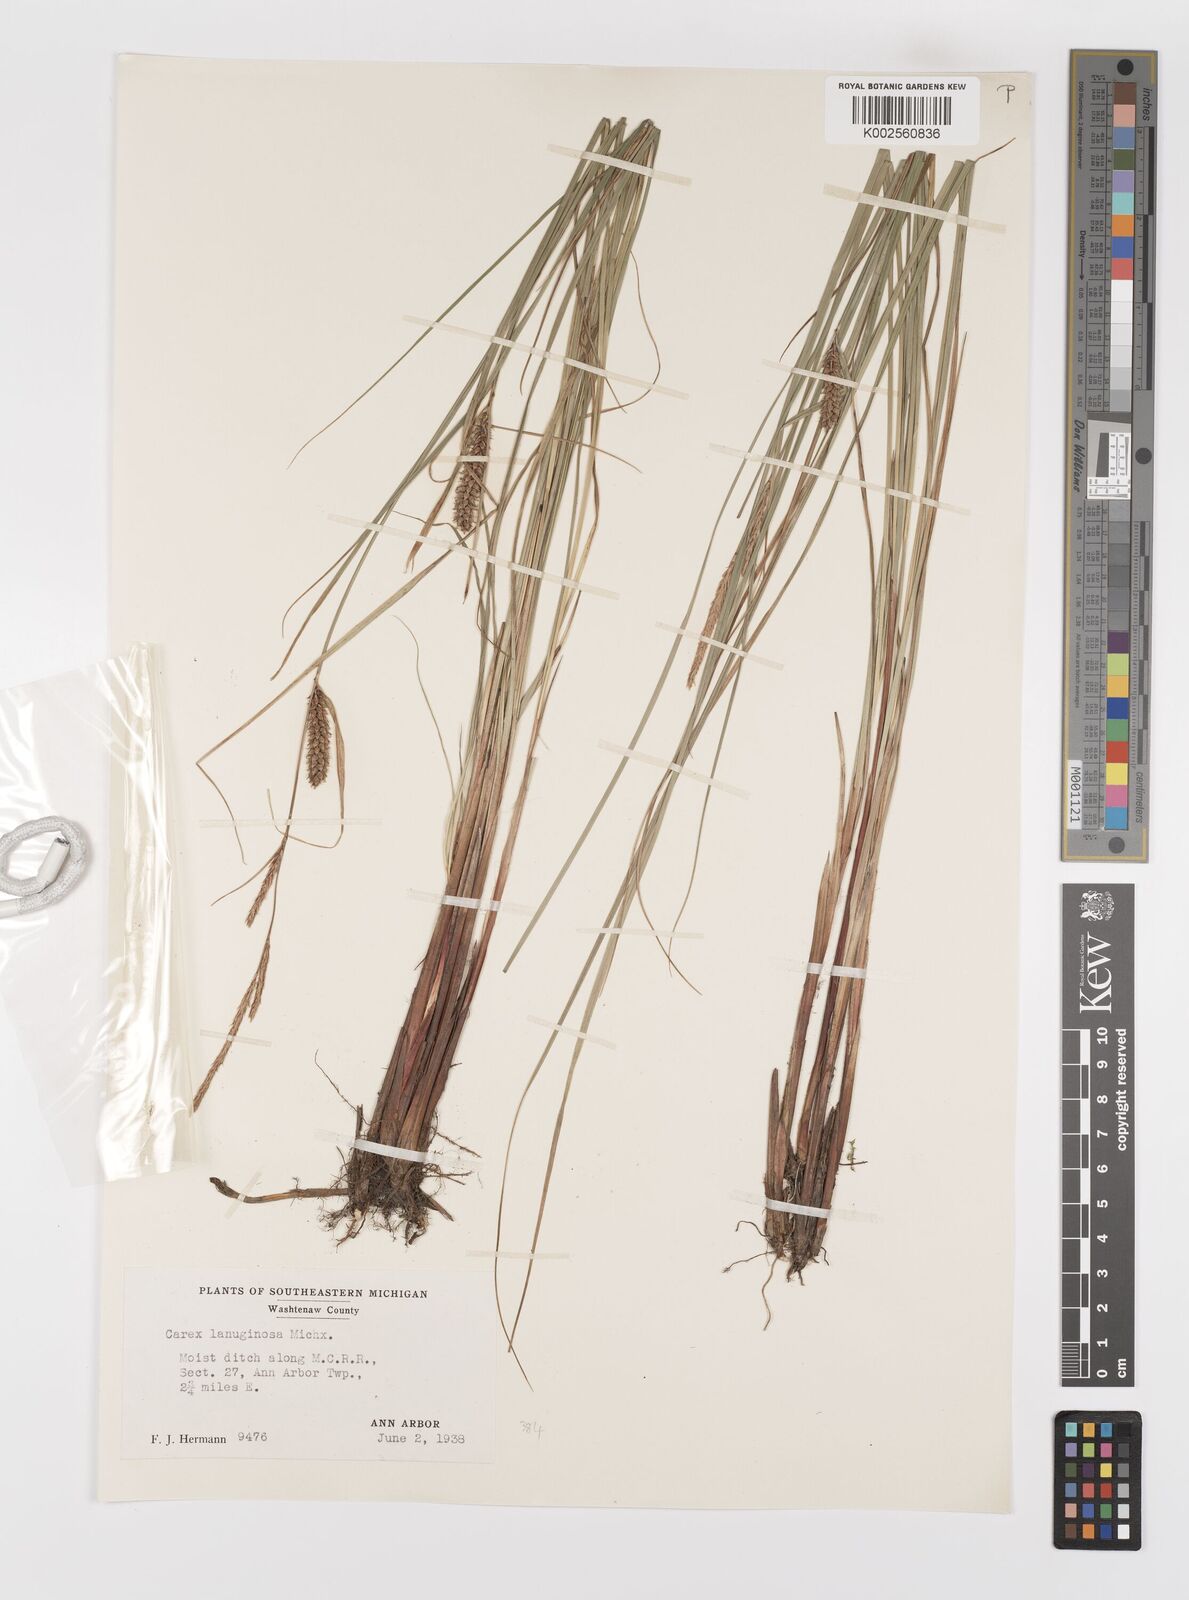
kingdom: Plantae
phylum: Tracheophyta
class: Liliopsida
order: Poales
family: Cyperaceae
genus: Carex
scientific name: Carex lasiocarpa
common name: Slender sedge
